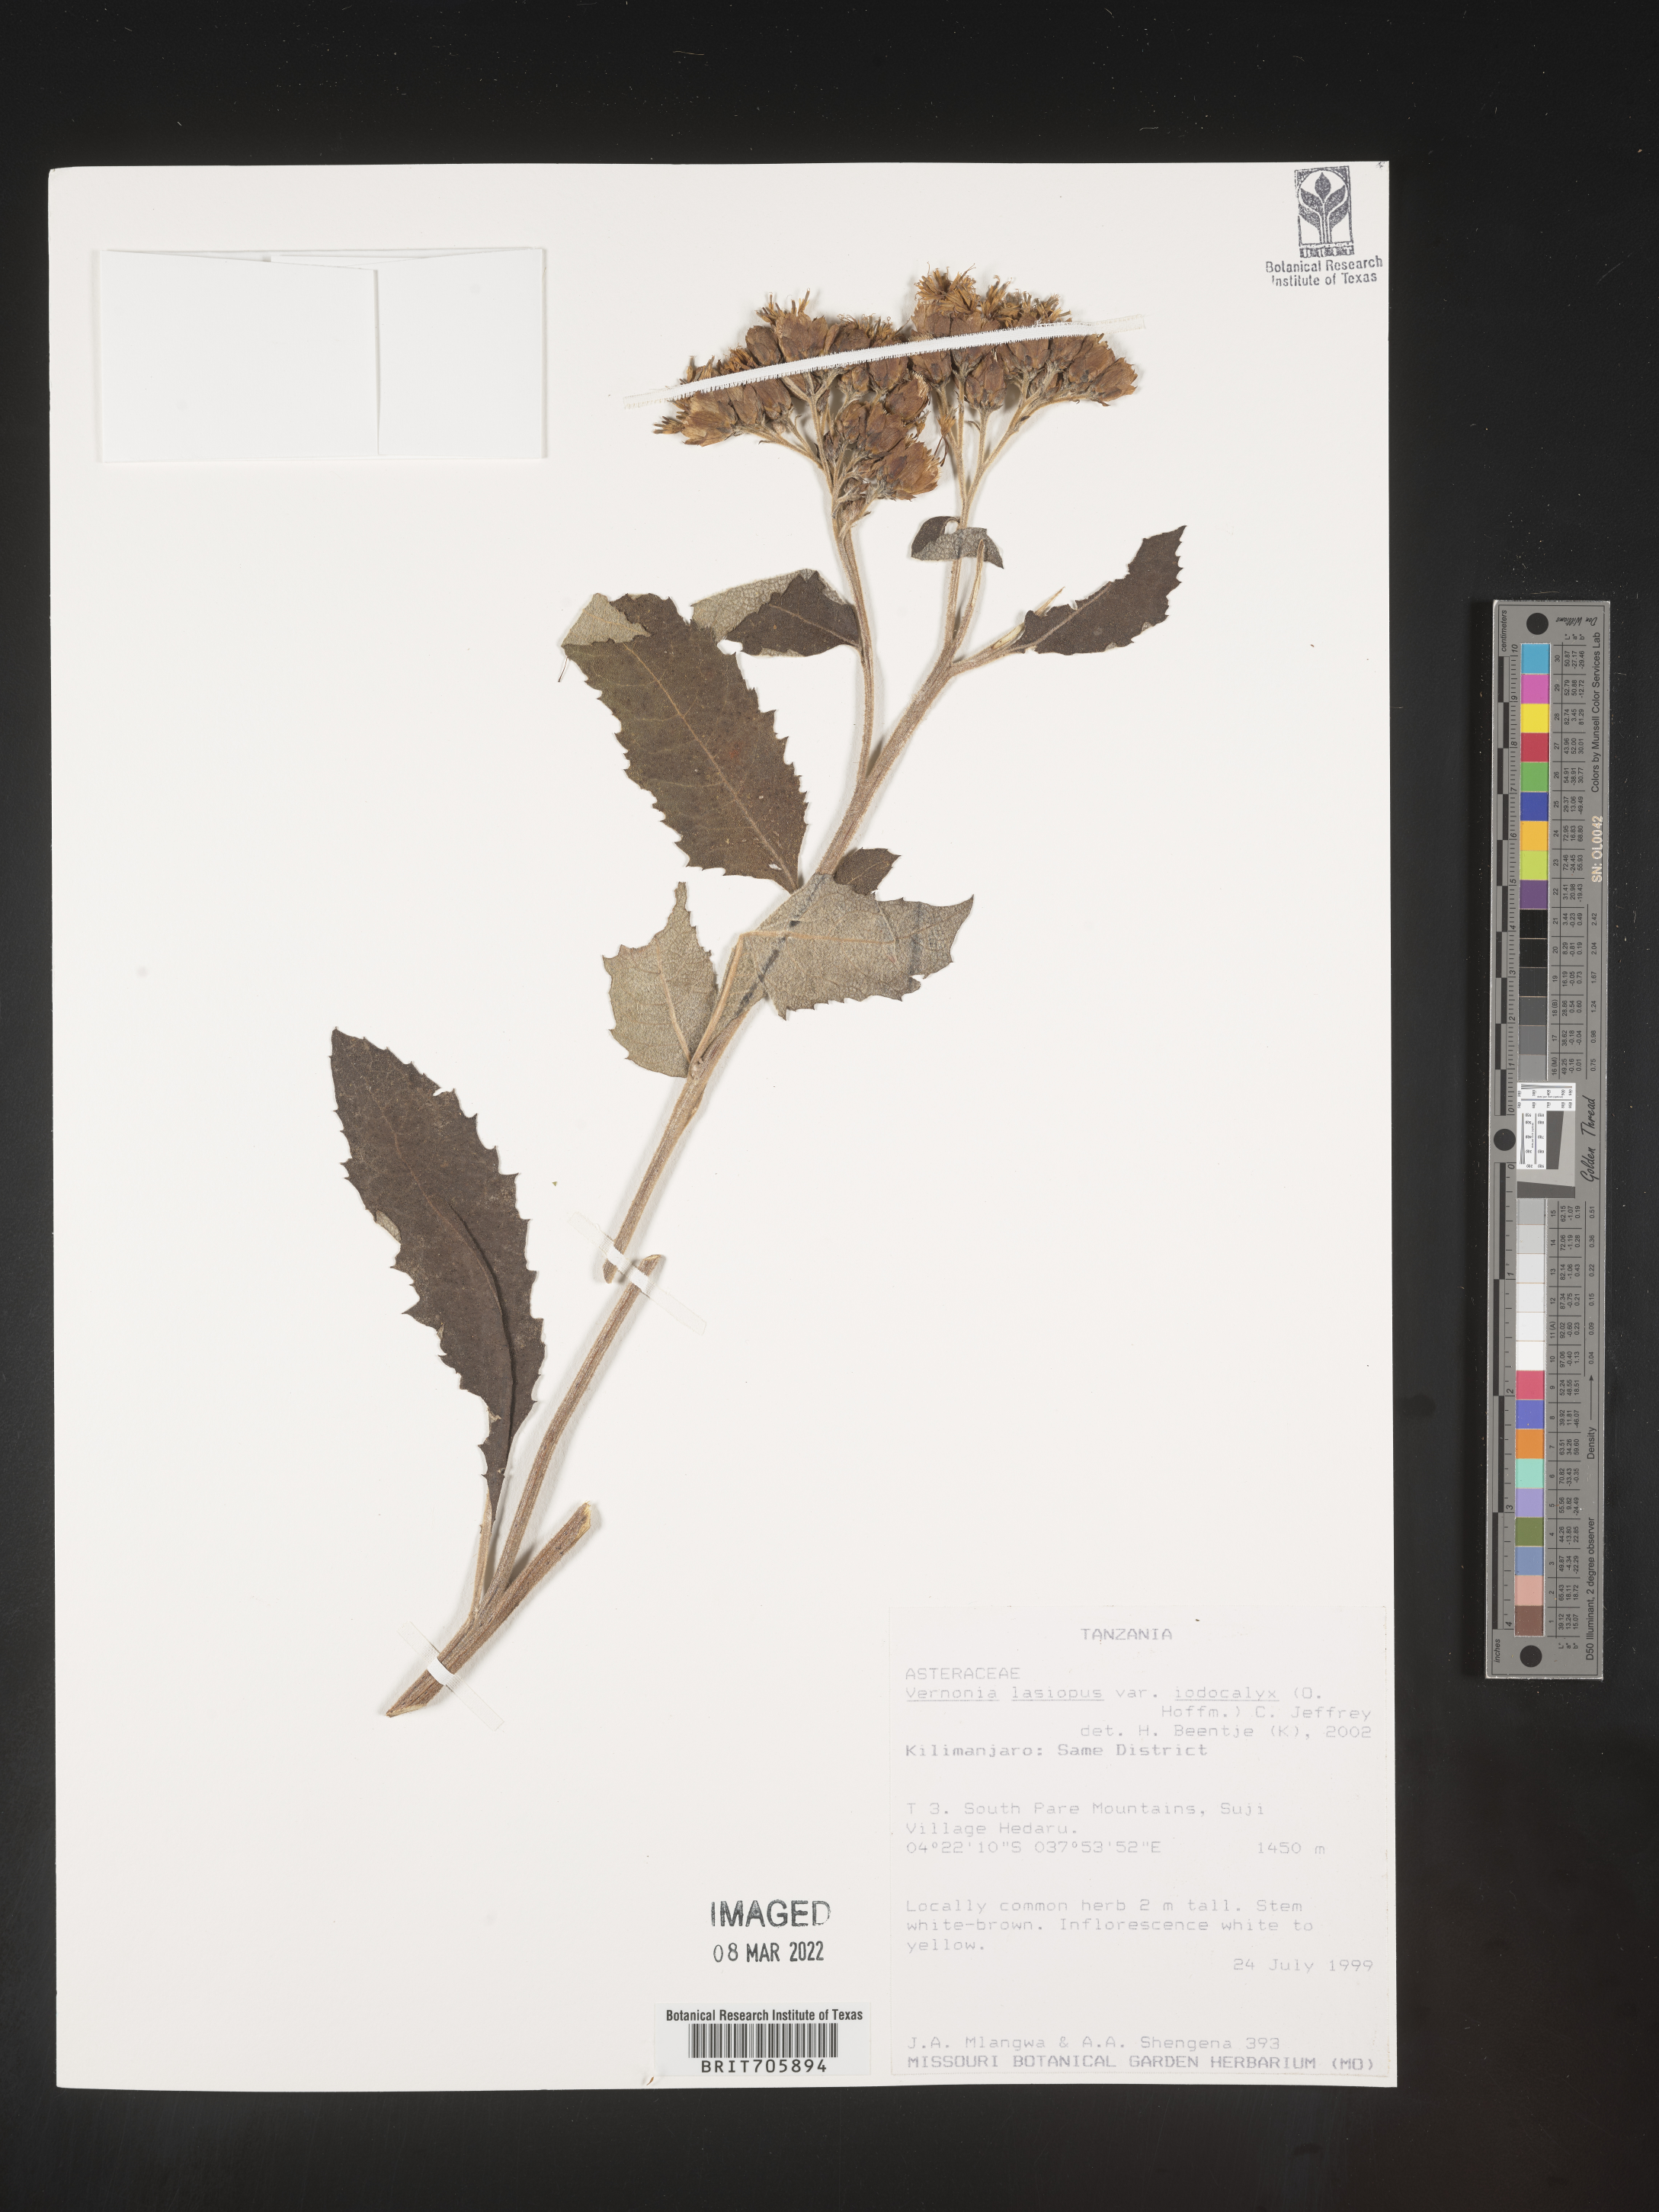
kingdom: Plantae
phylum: Tracheophyta
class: Magnoliopsida
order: Asterales
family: Asteraceae
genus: Vernonia
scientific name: Vernonia
